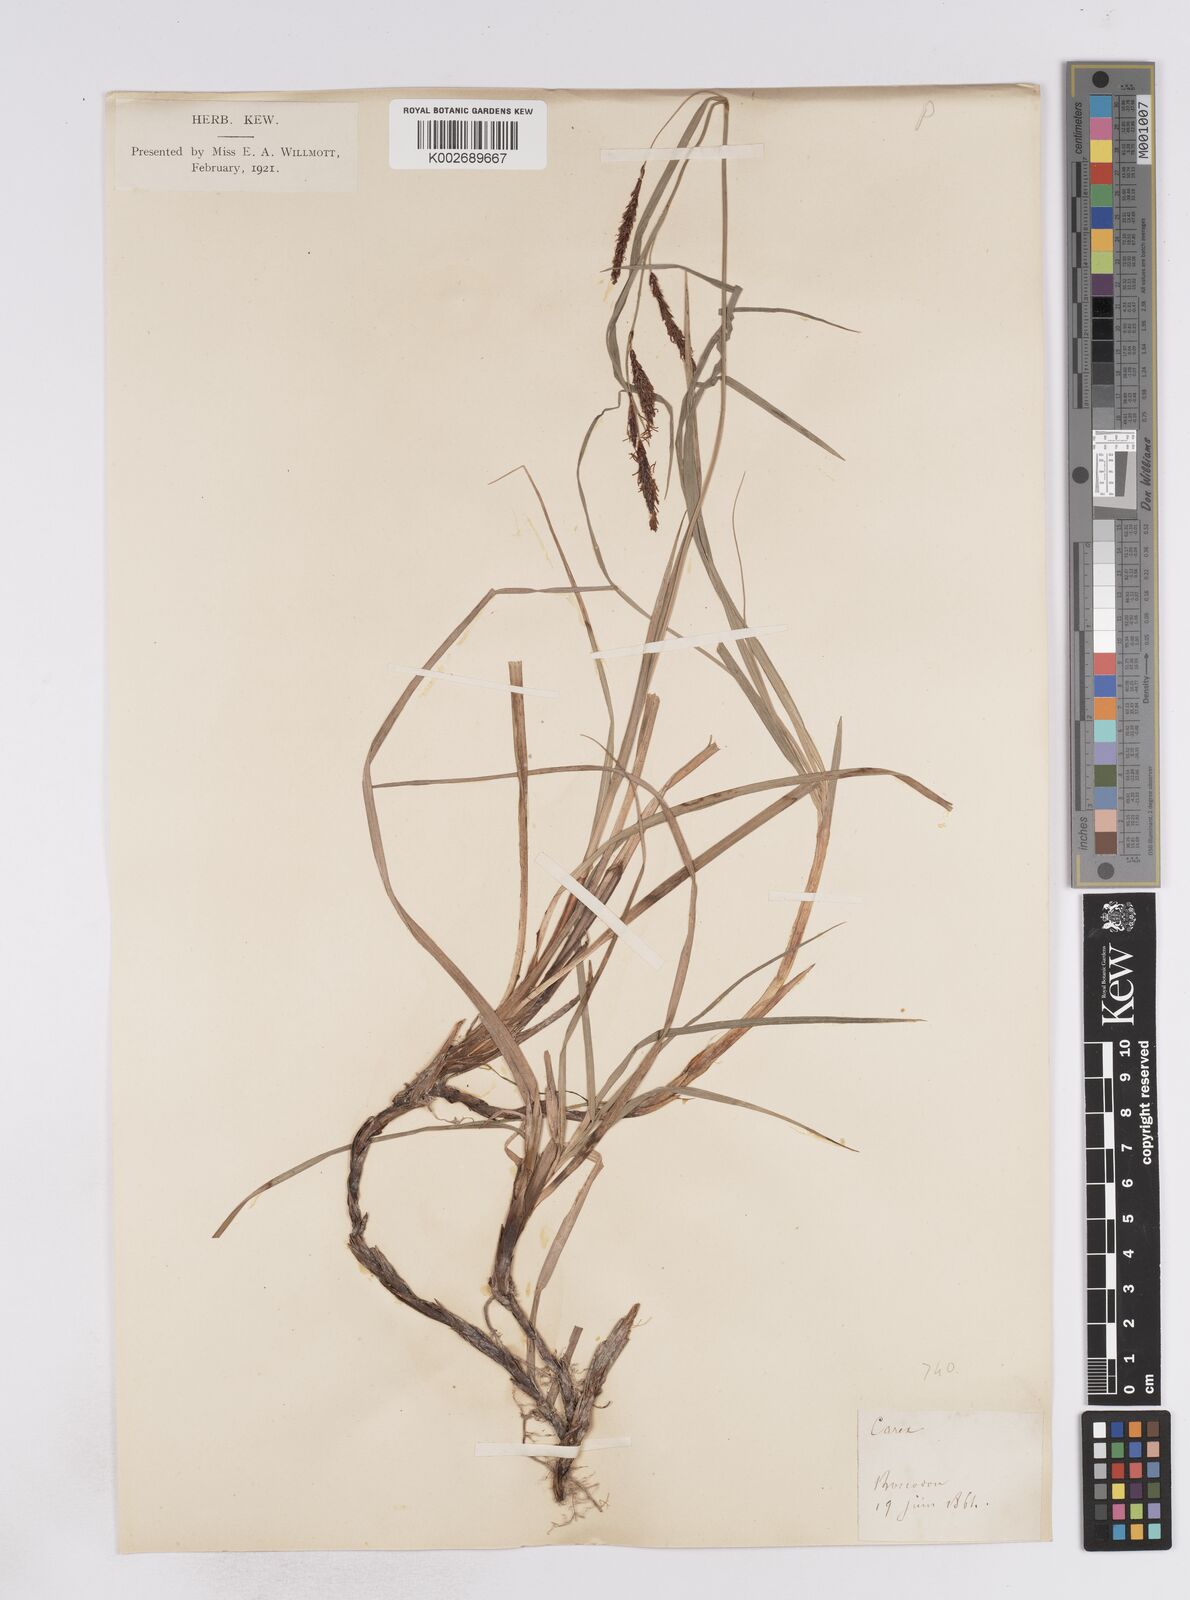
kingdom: Plantae
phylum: Tracheophyta
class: Liliopsida
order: Poales
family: Cyperaceae
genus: Carex
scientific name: Carex flacca
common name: Glaucous sedge
